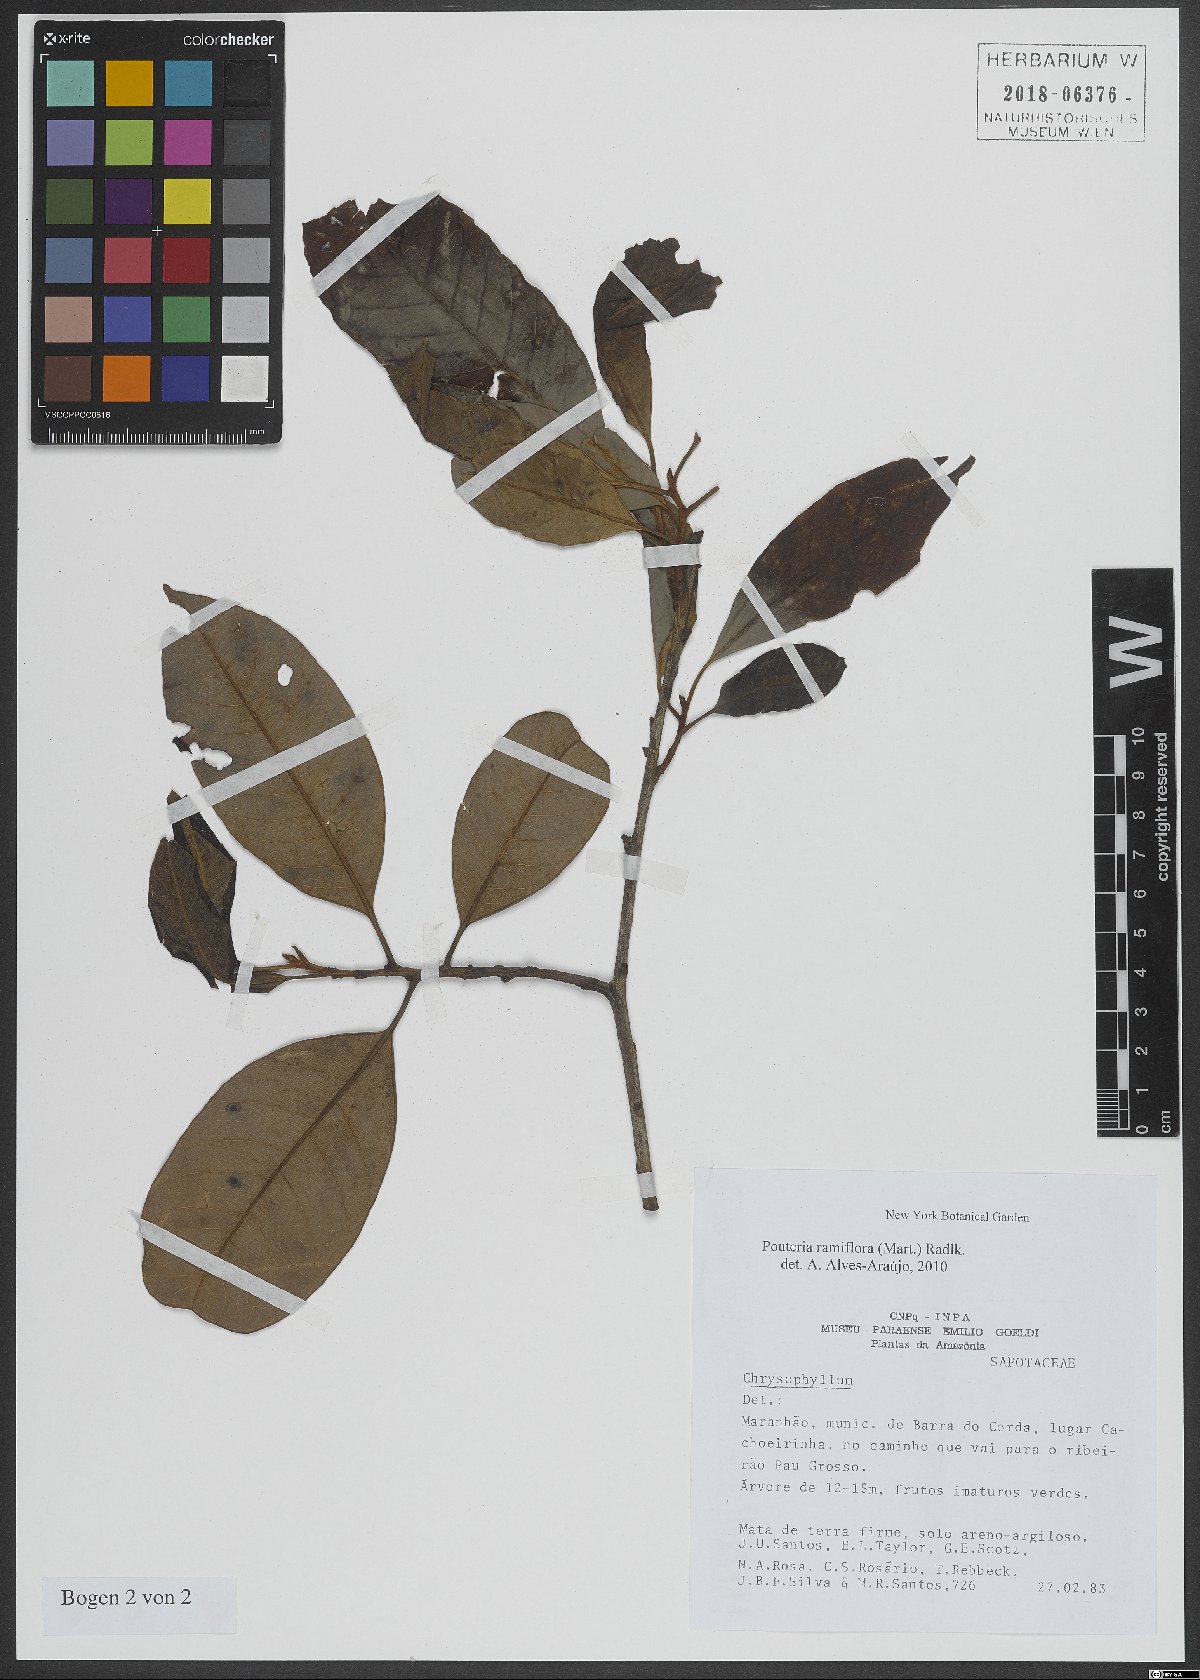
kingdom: Plantae
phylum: Tracheophyta
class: Magnoliopsida
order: Ericales
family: Sapotaceae
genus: Pouteria
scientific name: Pouteria ramiflora
